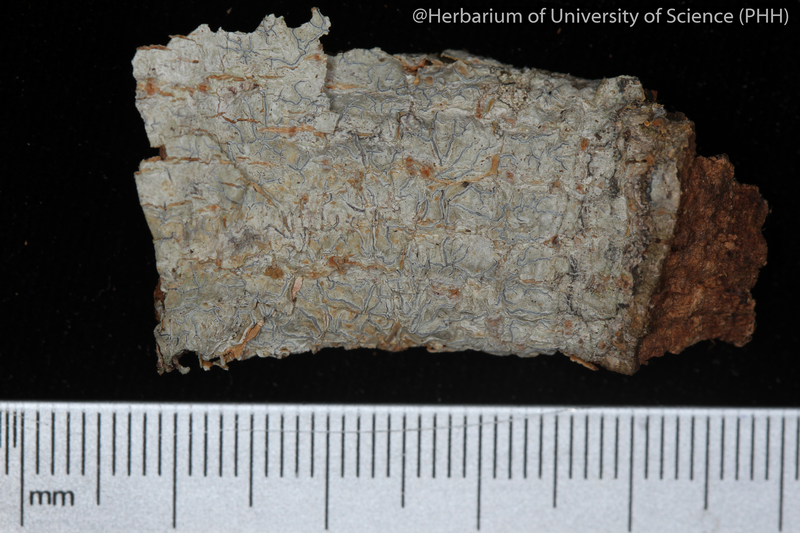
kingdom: Fungi
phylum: Ascomycota
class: Lecanoromycetes
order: Ostropales
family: Graphidaceae
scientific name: Graphidaceae
